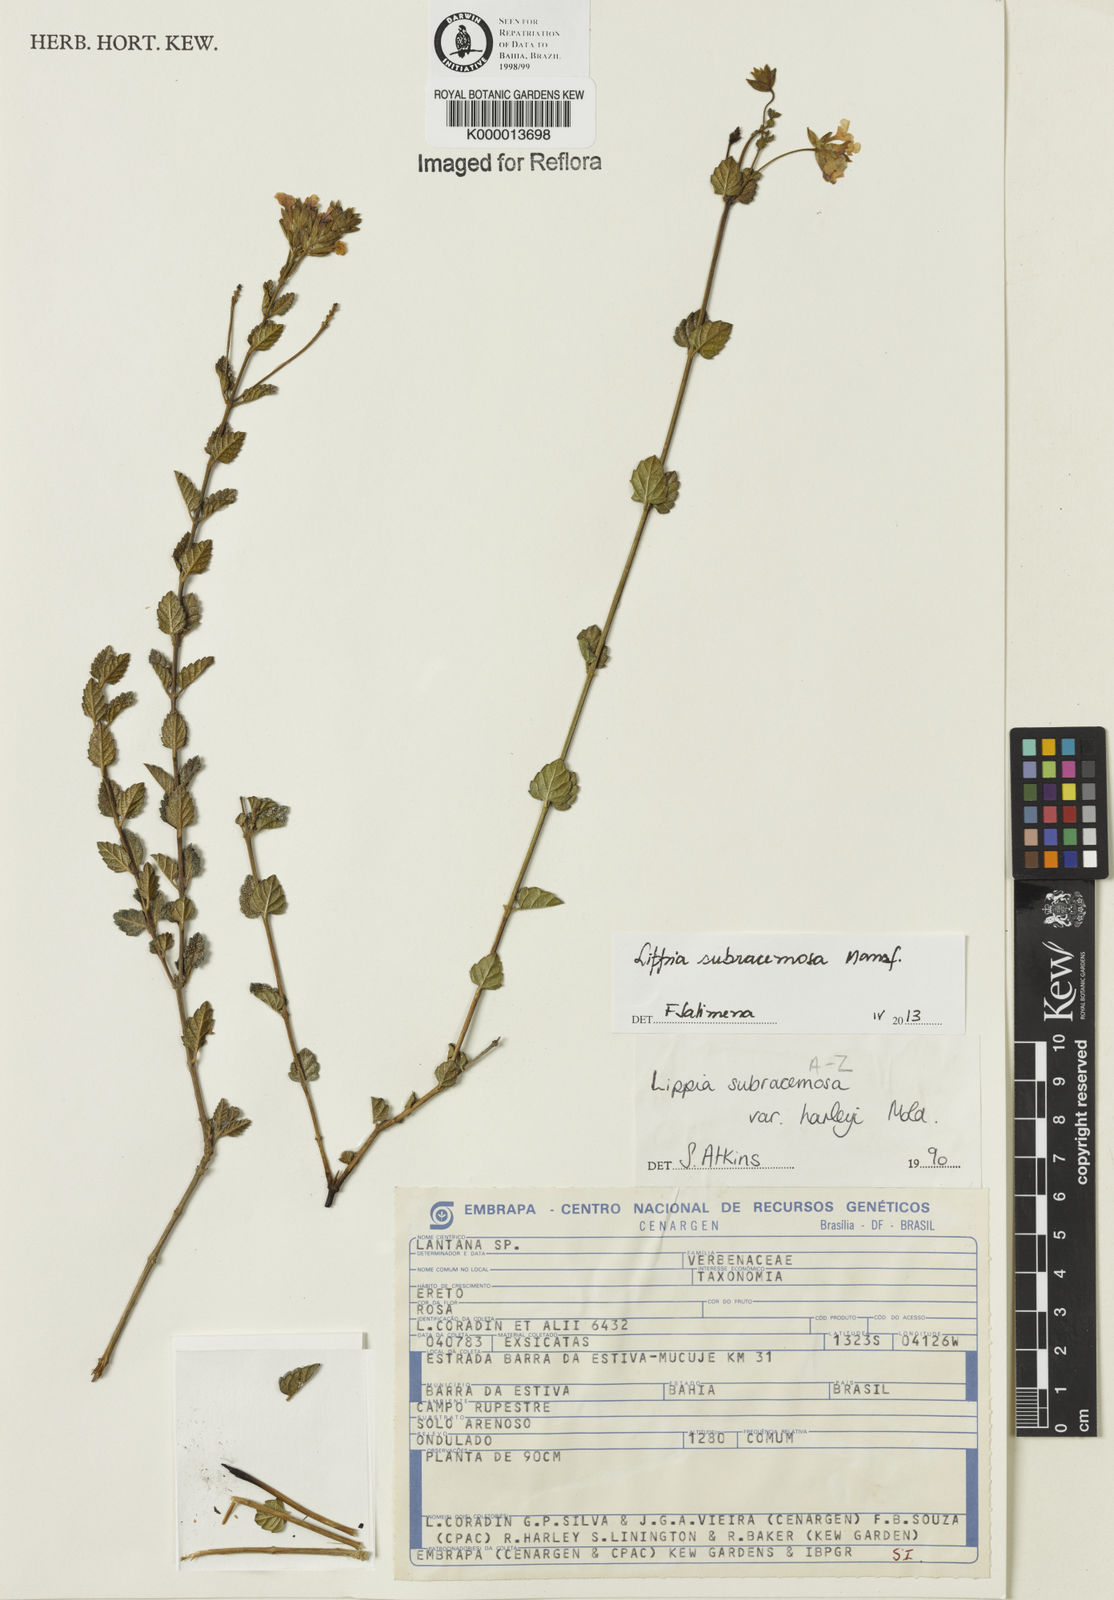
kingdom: Plantae
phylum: Tracheophyta
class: Magnoliopsida
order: Lamiales
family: Verbenaceae
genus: Lippia
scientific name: Lippia deltata
